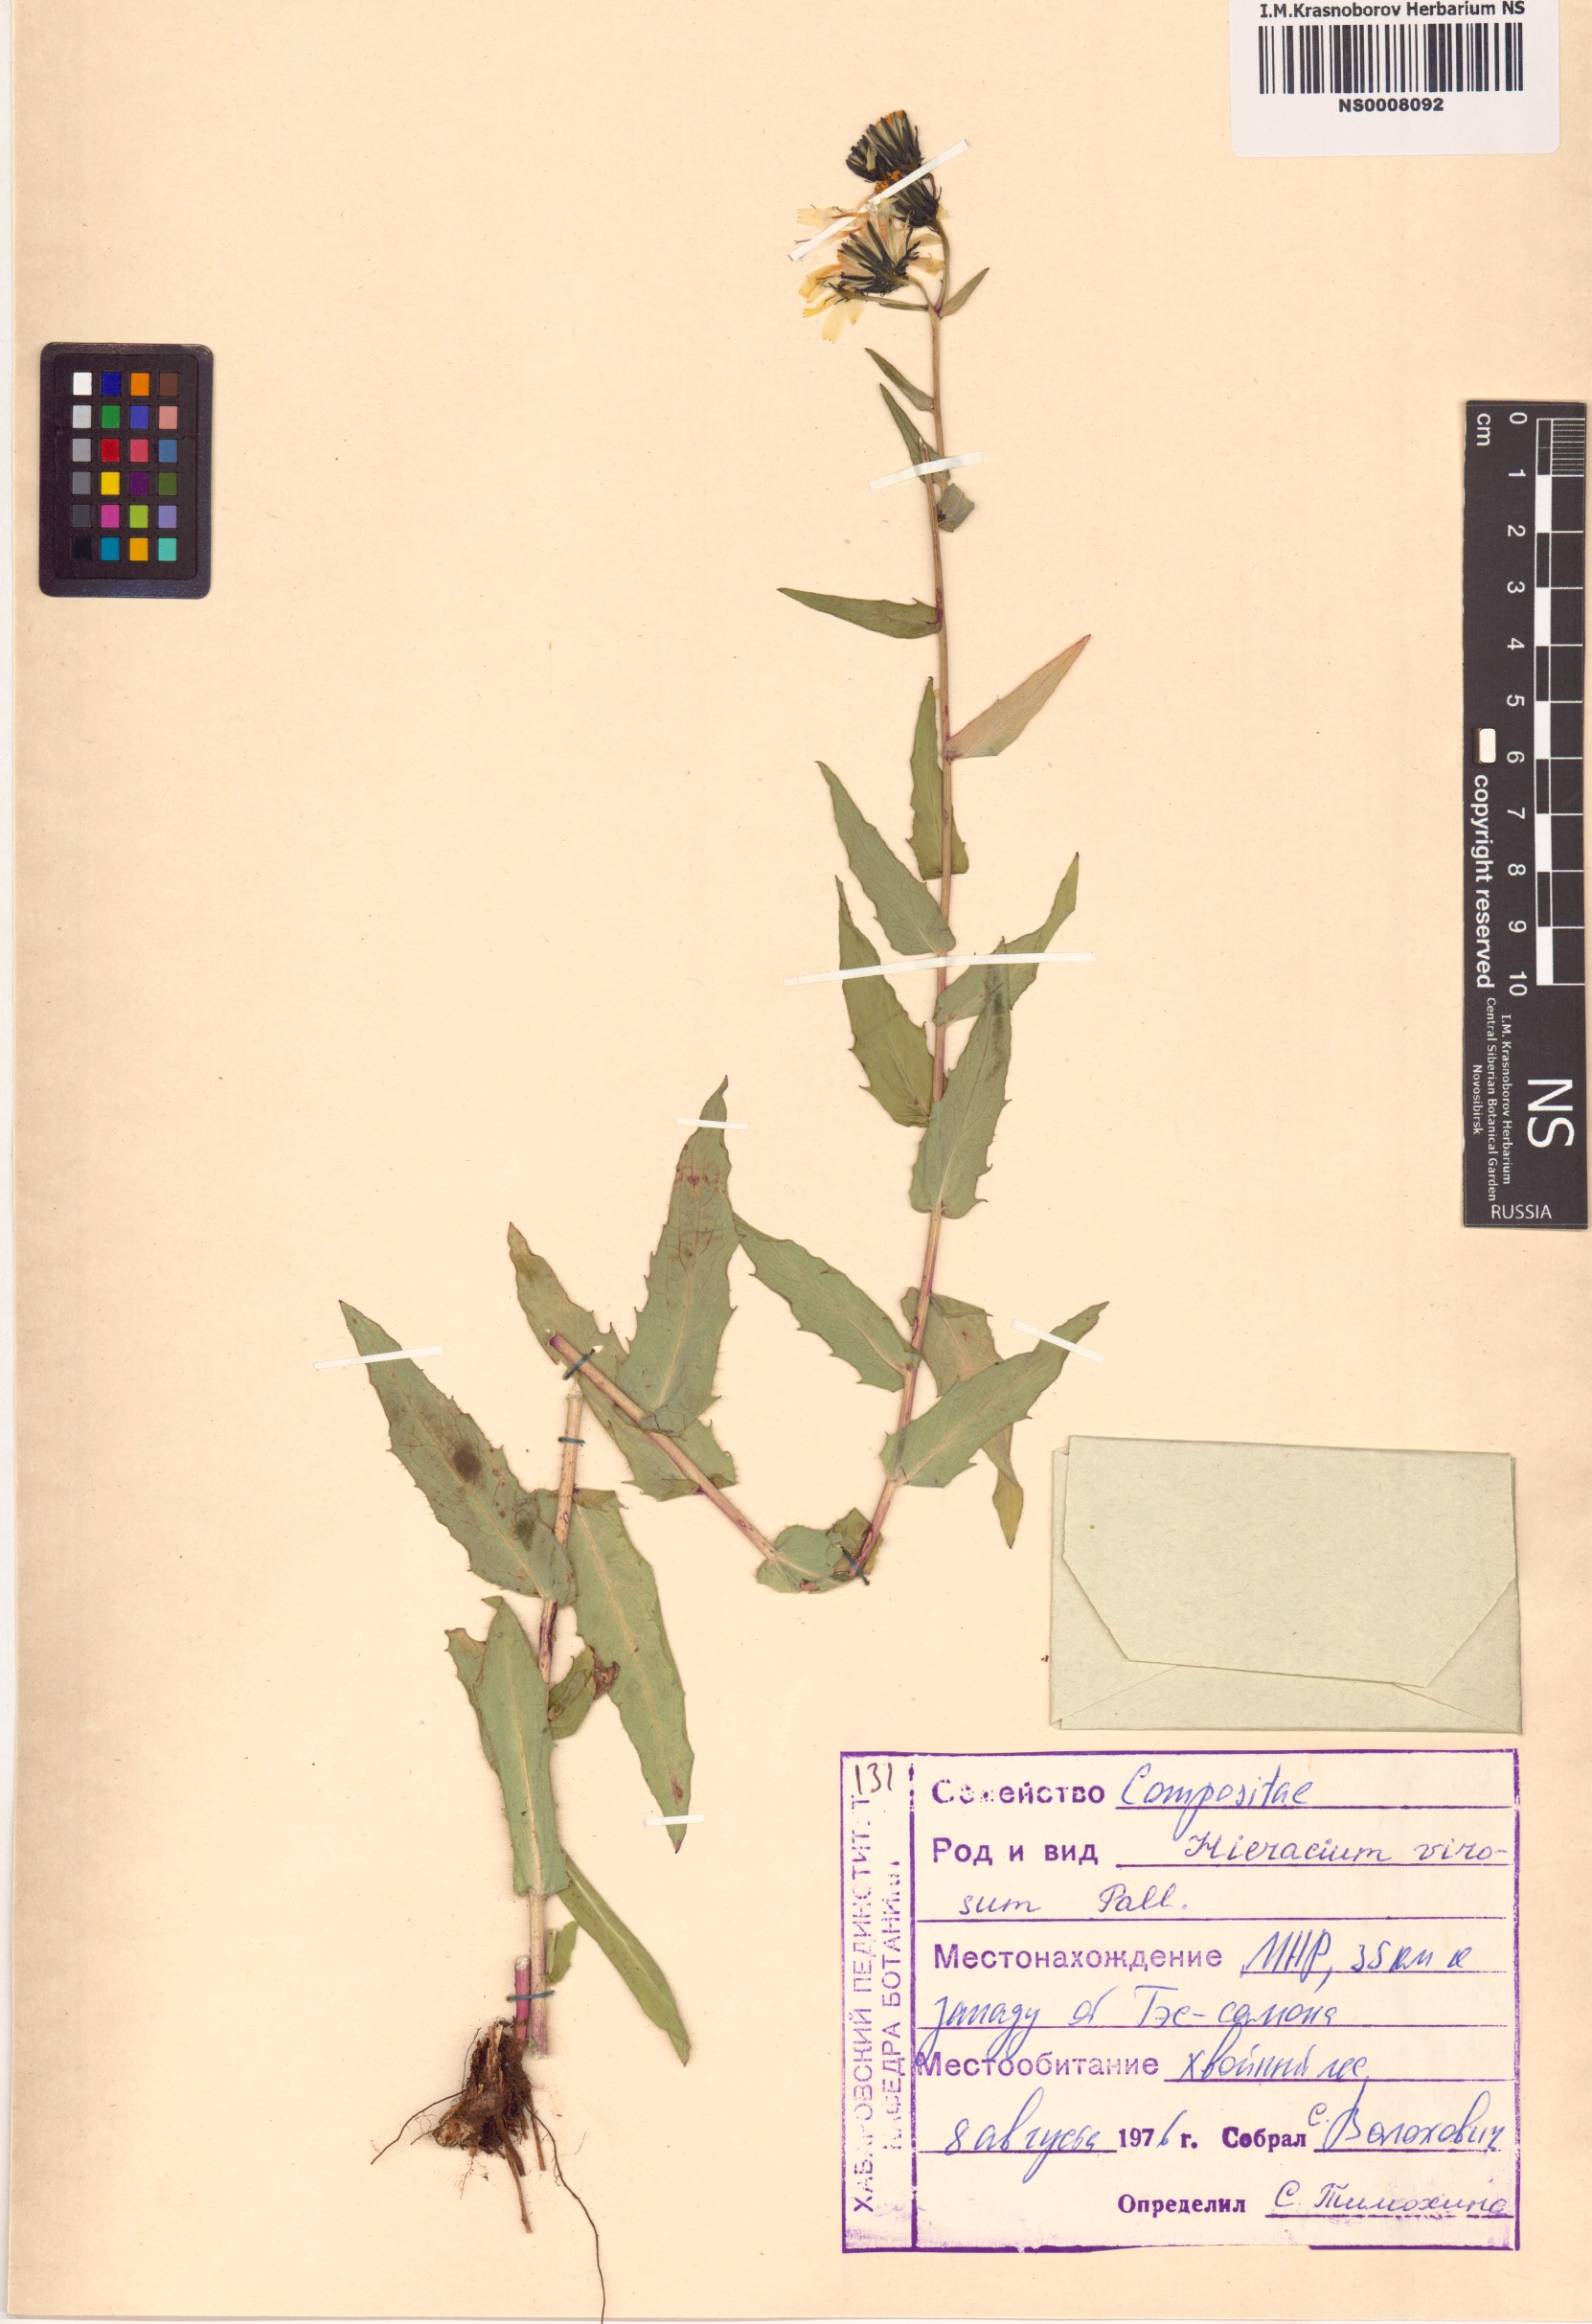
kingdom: Plantae
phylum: Tracheophyta
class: Magnoliopsida
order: Asterales
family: Asteraceae
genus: Hieracium
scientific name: Hieracium virosum
